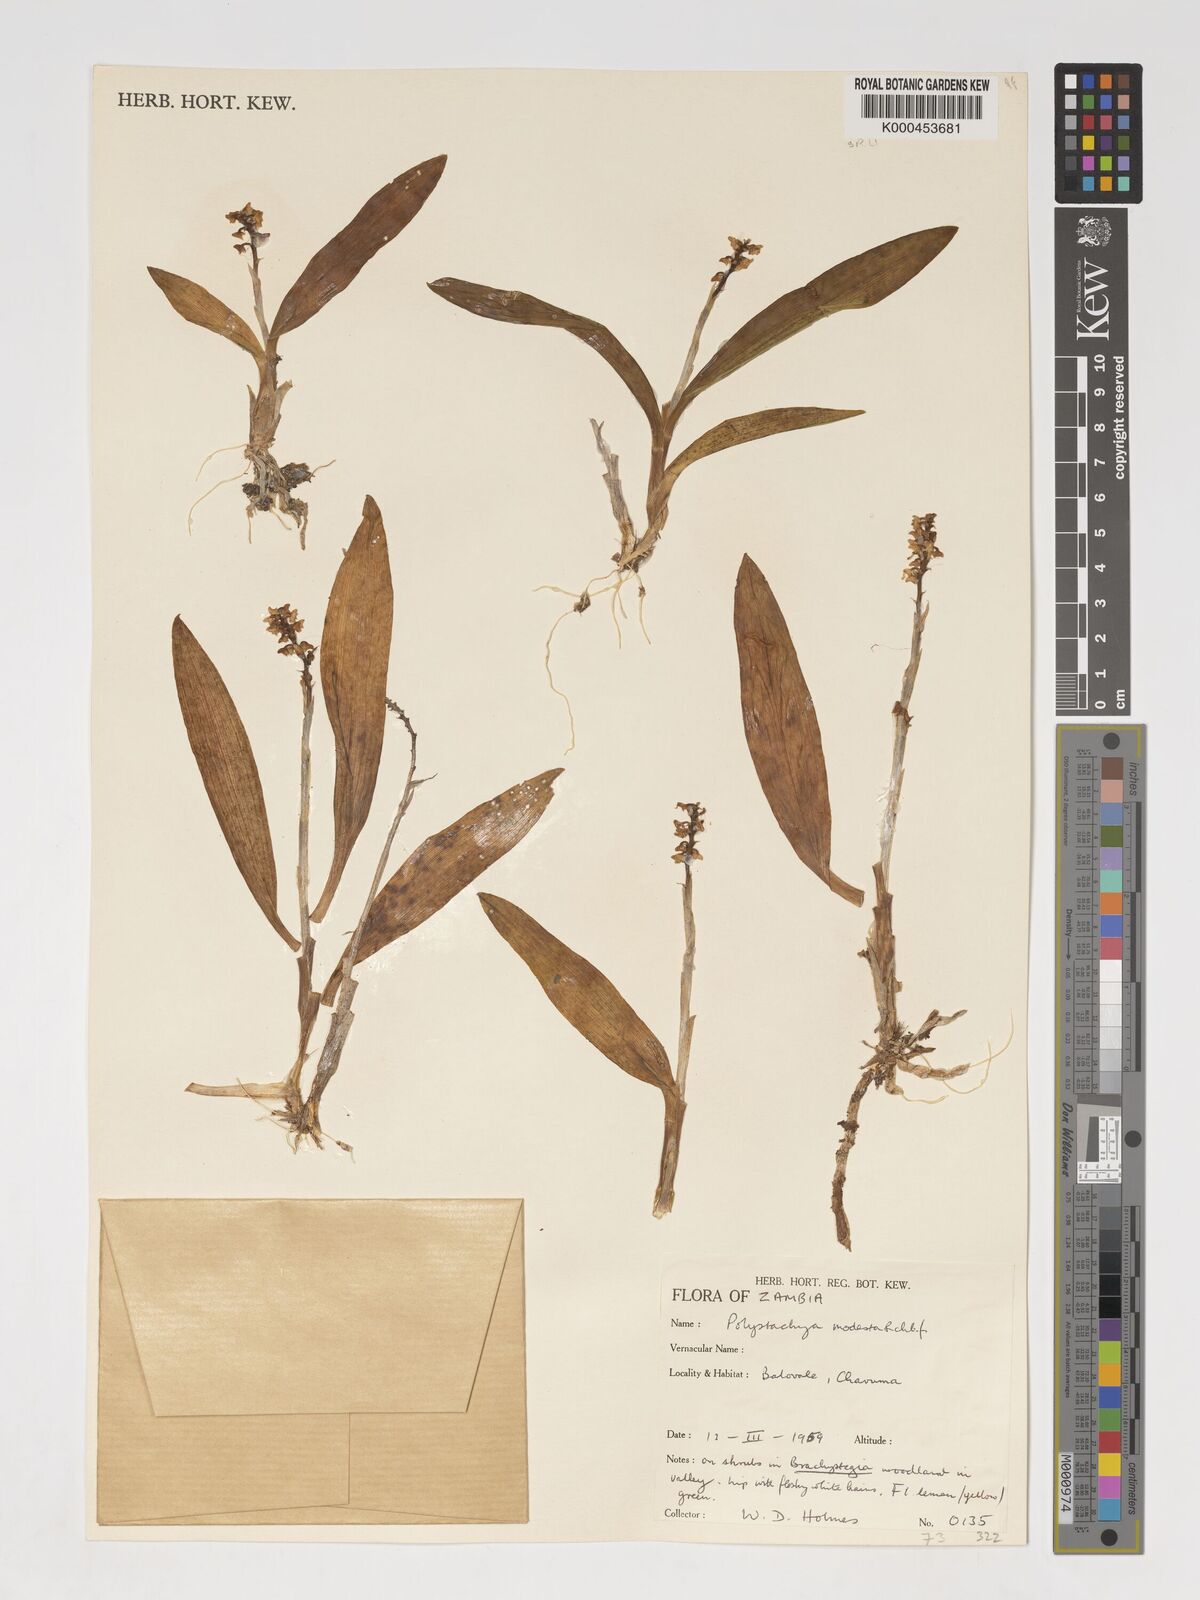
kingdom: Plantae
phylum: Tracheophyta
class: Liliopsida
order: Asparagales
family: Orchidaceae
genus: Polystachya
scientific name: Polystachya modesta
